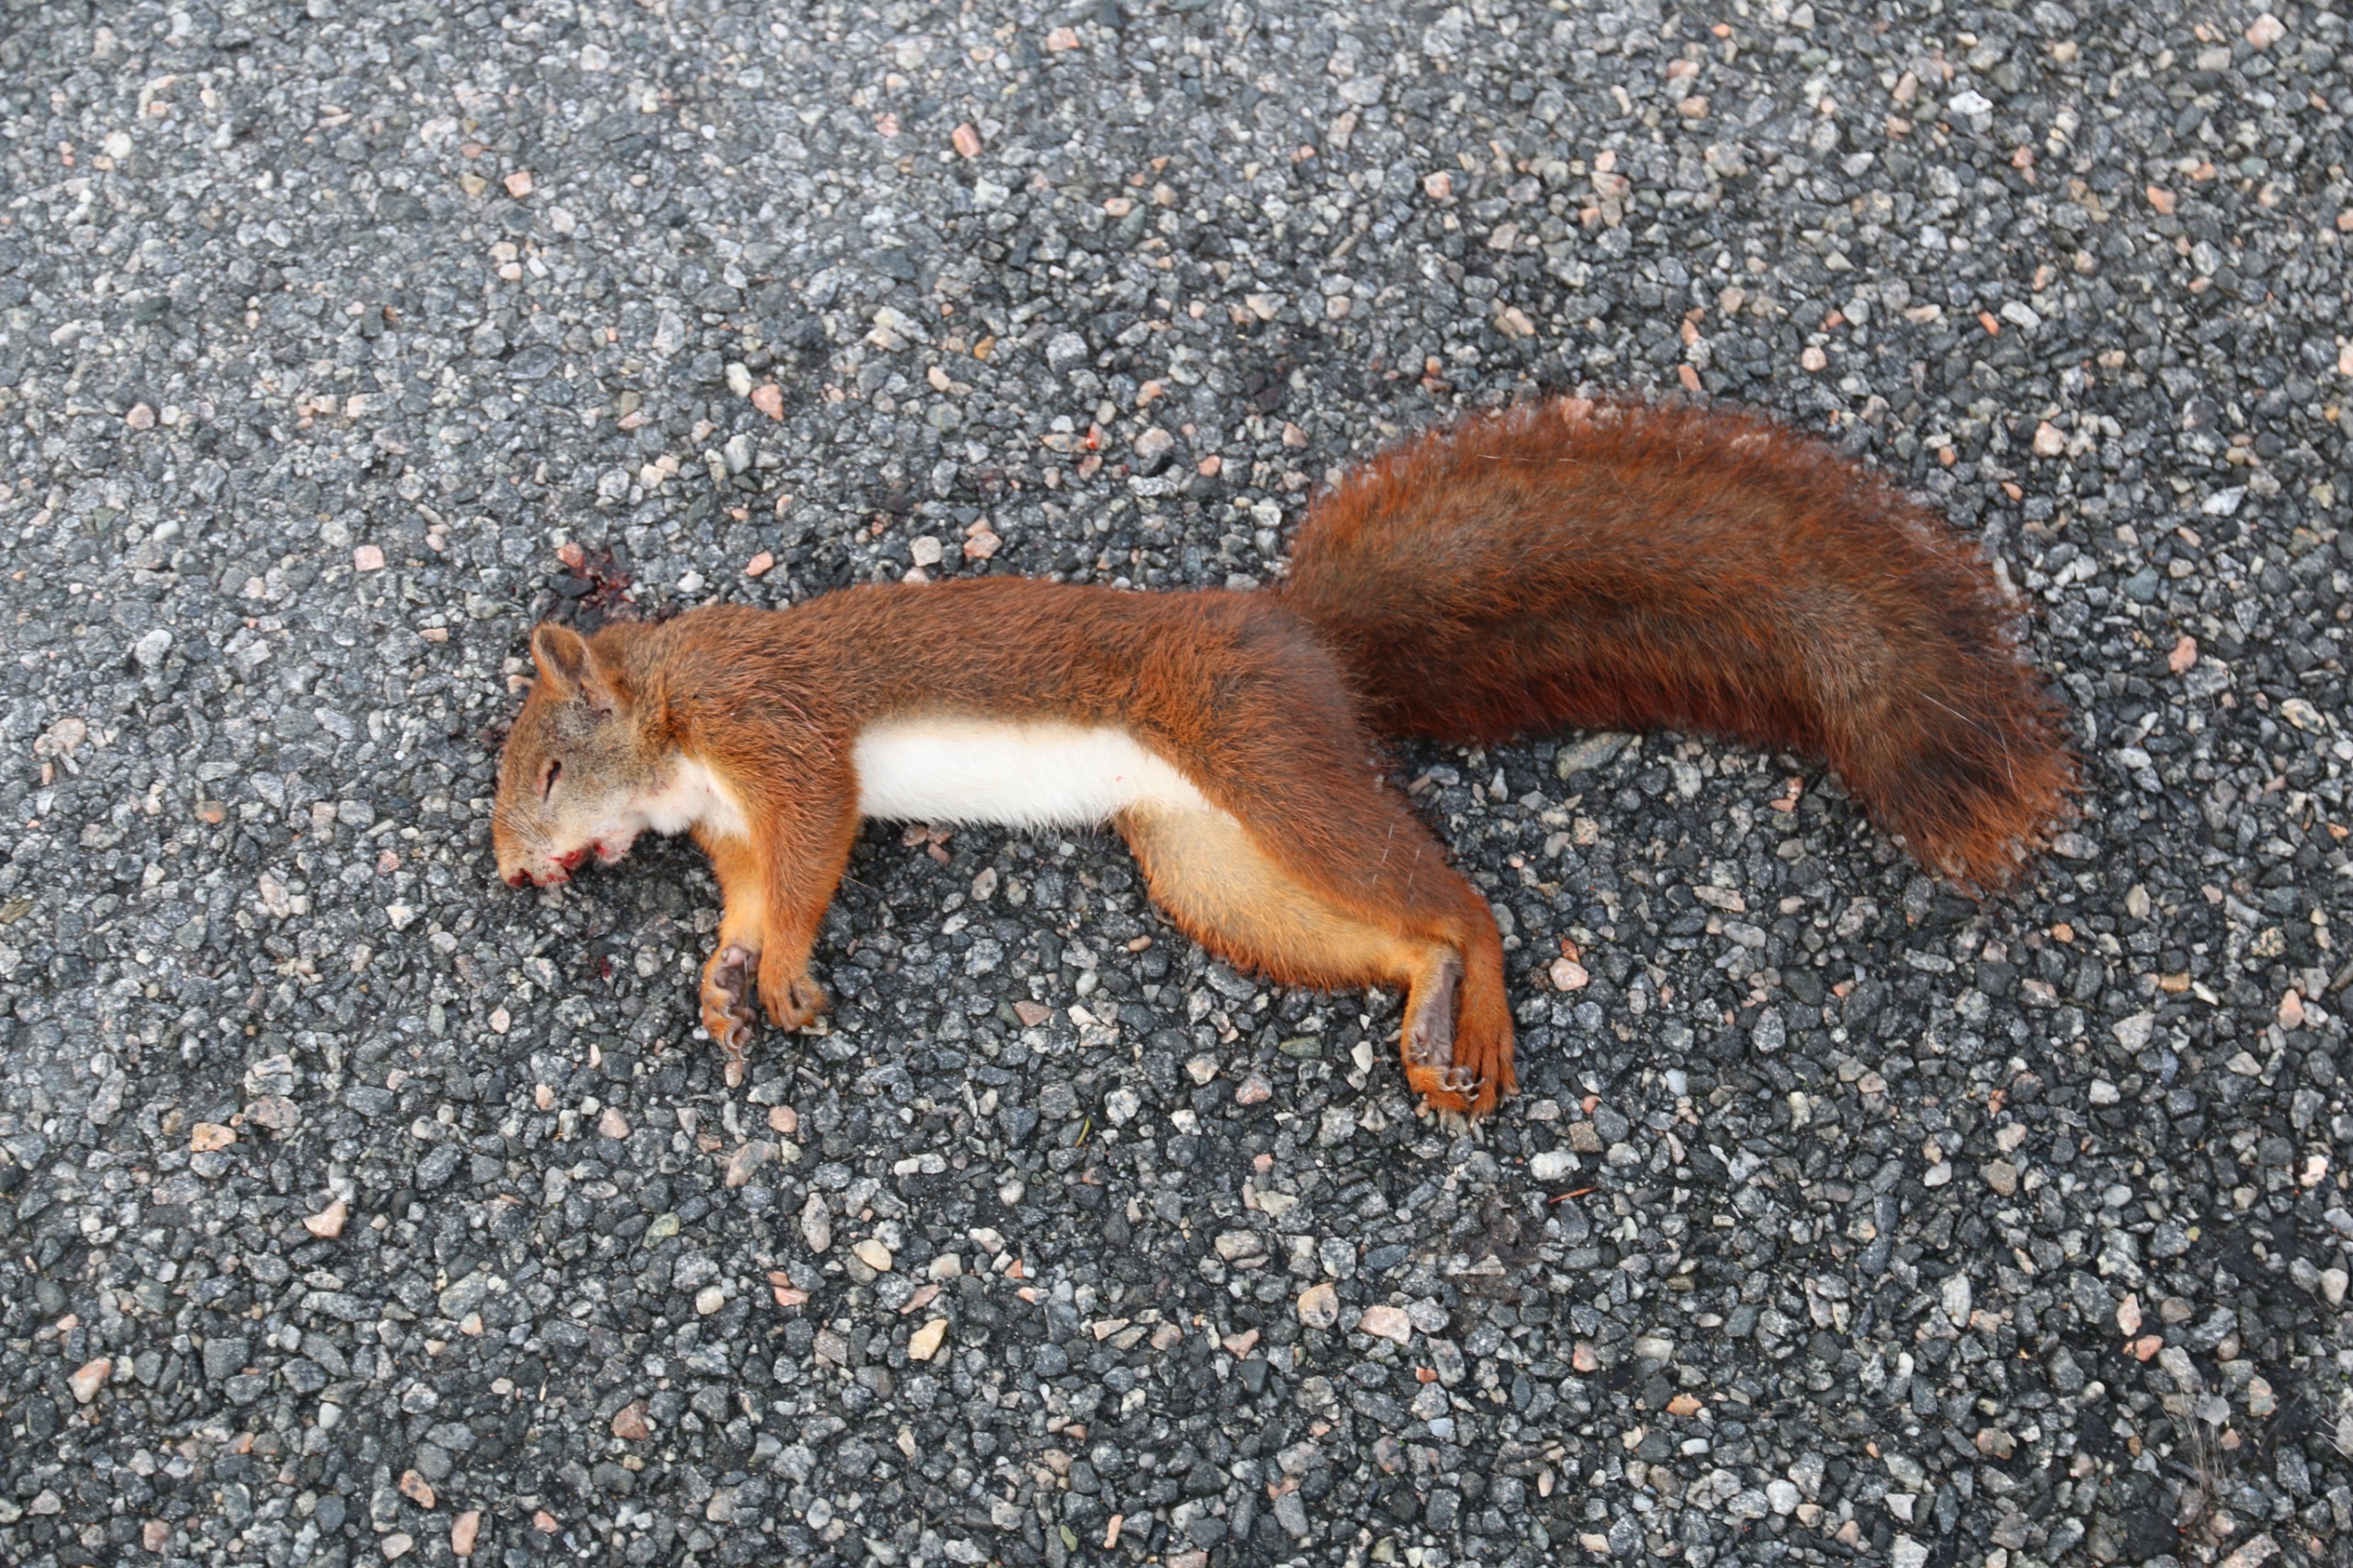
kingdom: Animalia
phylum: Chordata
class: Mammalia
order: Rodentia
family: Sciuridae
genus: Sciurus
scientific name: Sciurus vulgaris
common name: Egern
